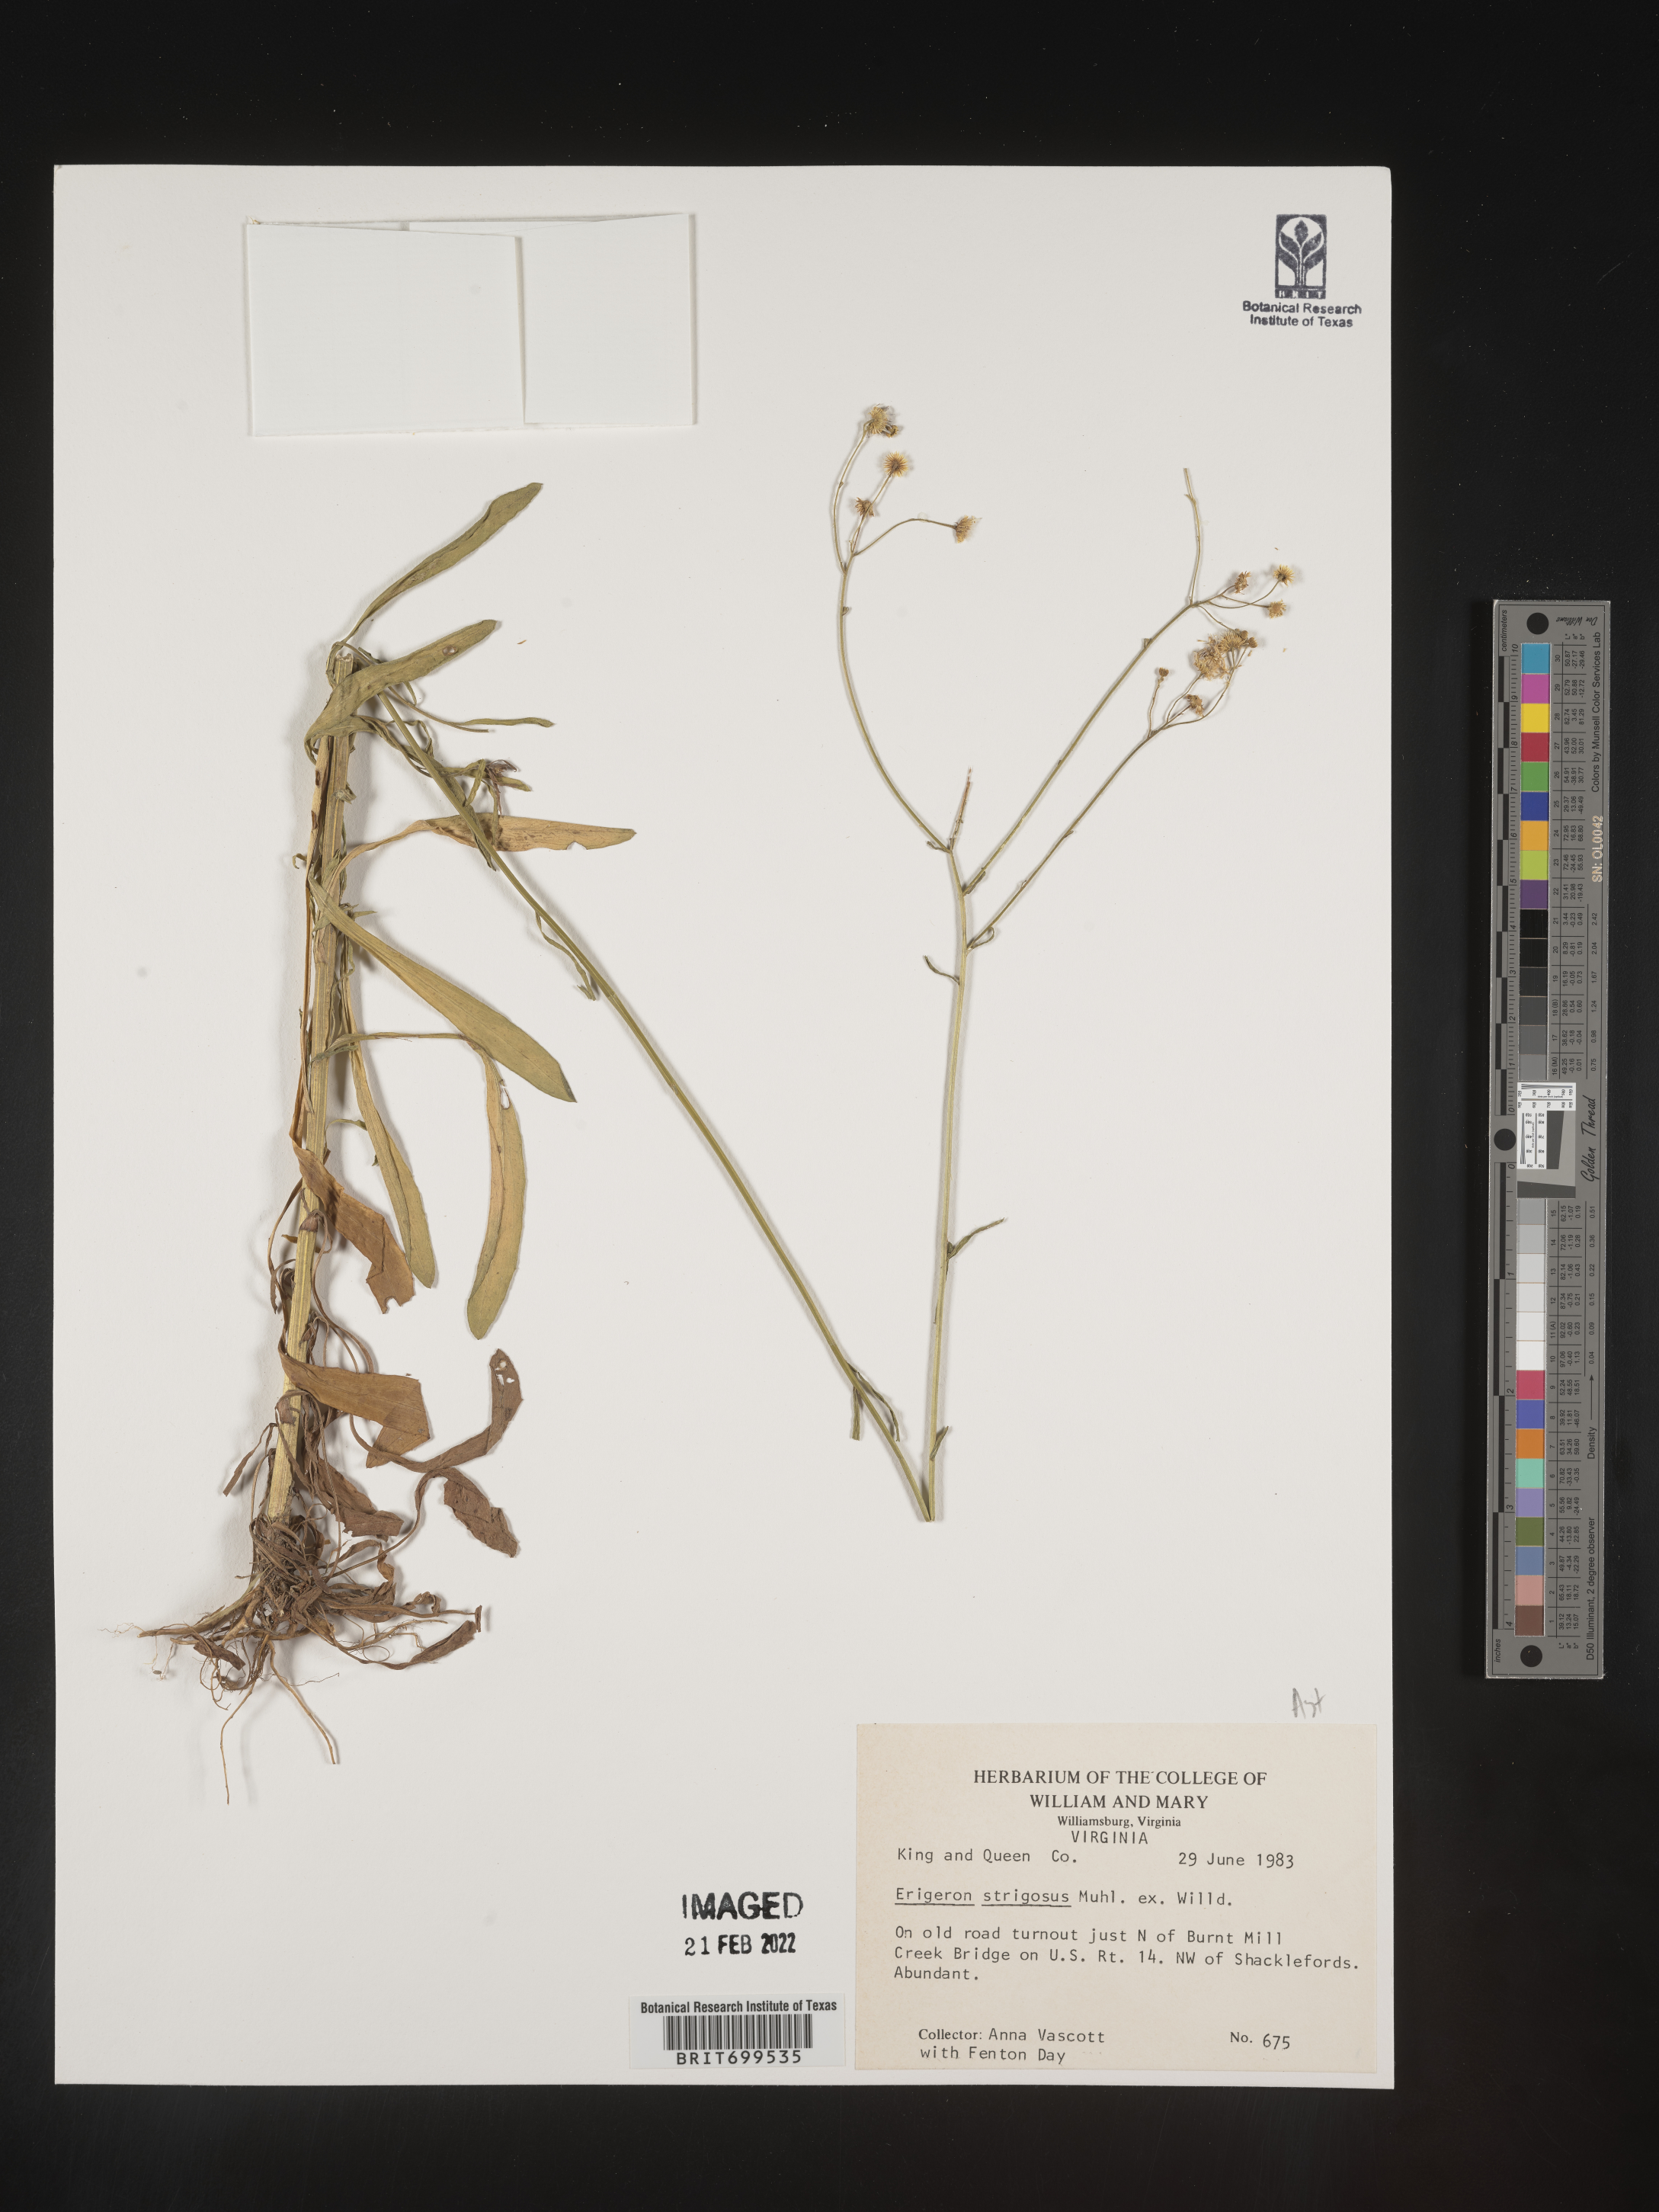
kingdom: Plantae
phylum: Tracheophyta
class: Magnoliopsida
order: Asterales
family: Asteraceae
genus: Erigeron
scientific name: Erigeron strigosus
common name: Common eastern fleabane
